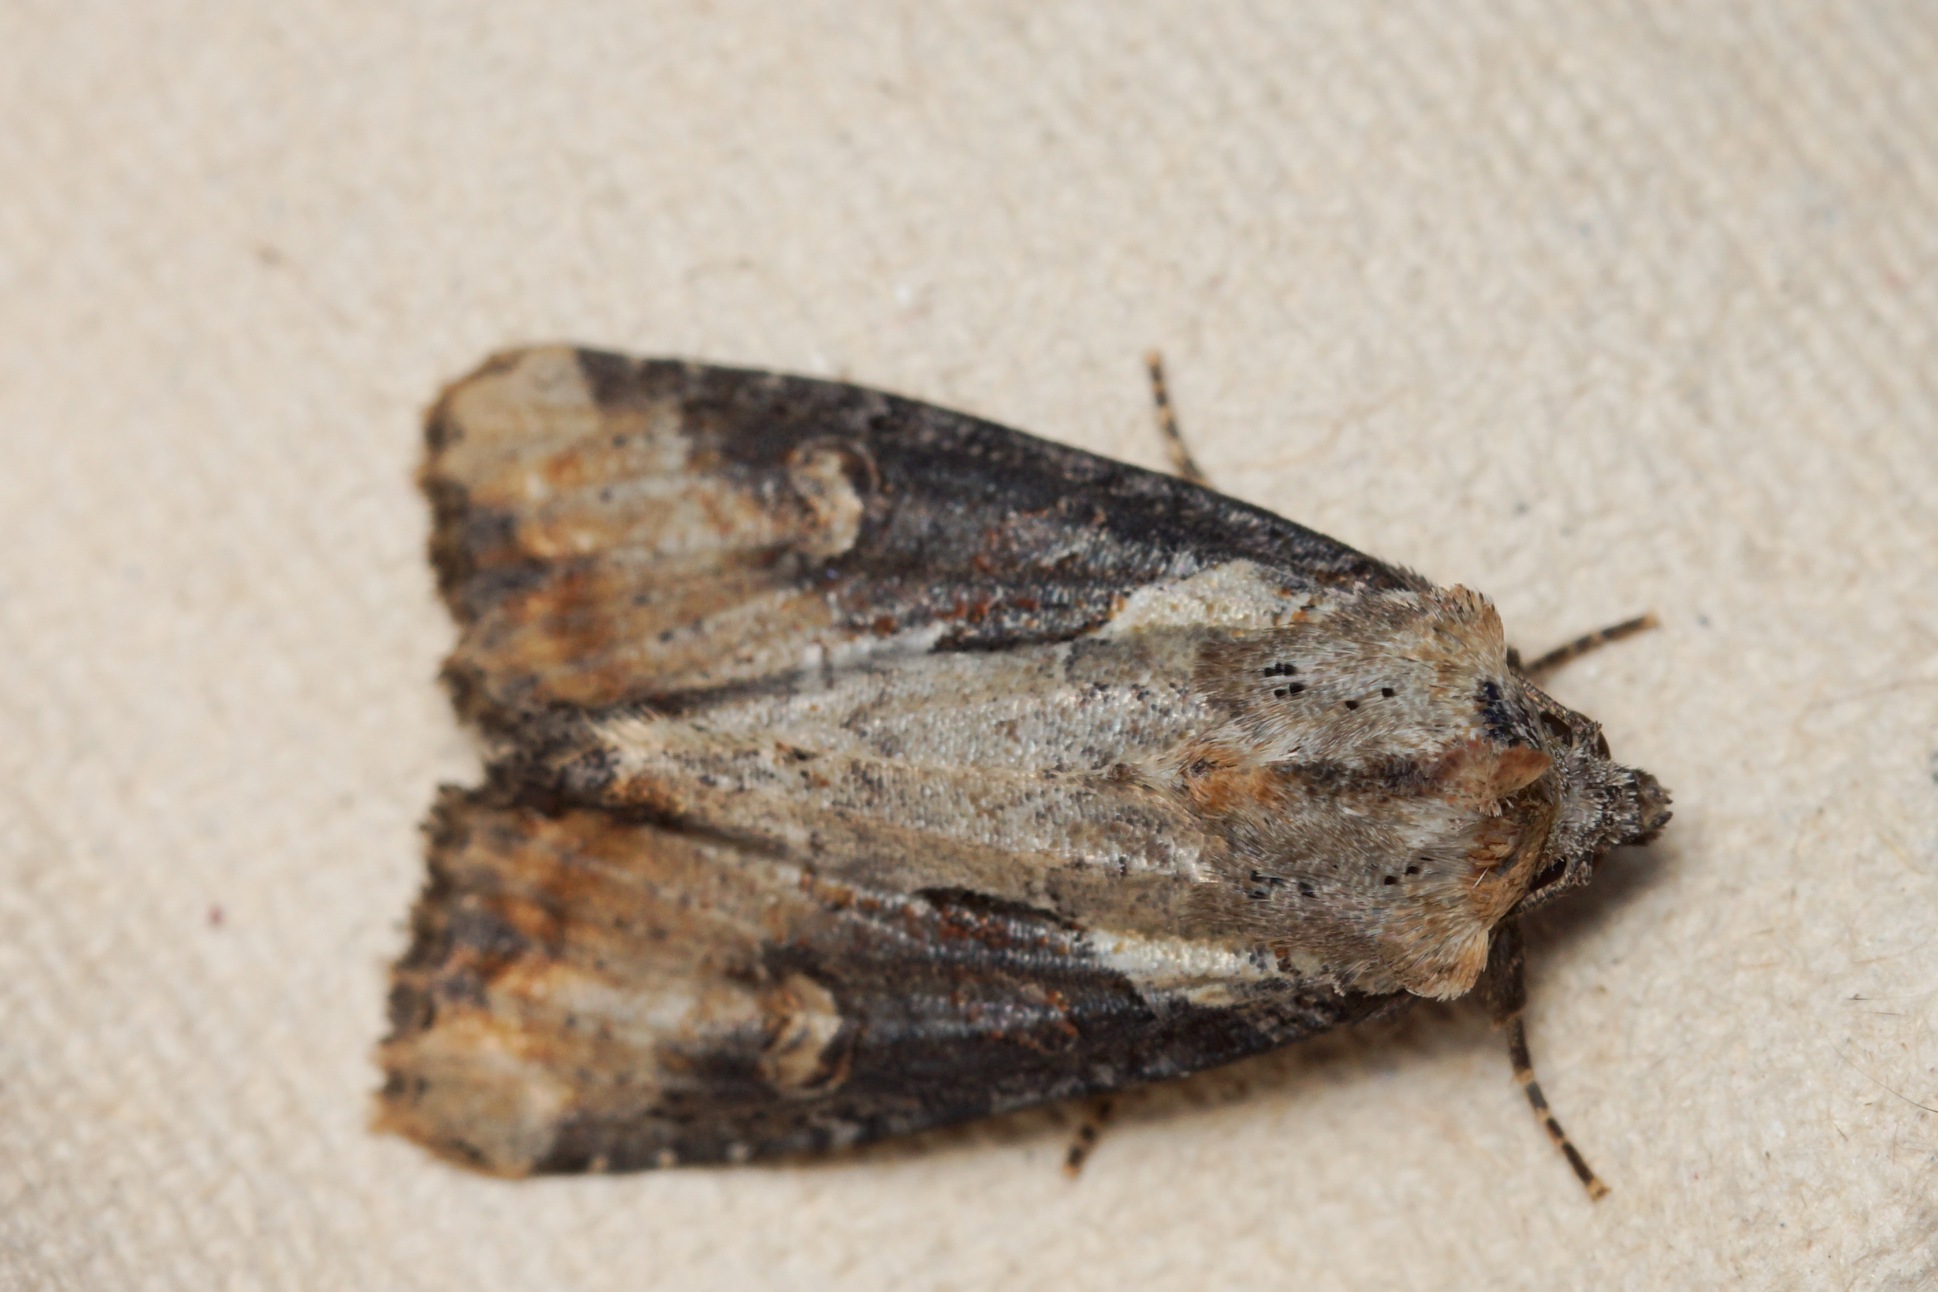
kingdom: Animalia
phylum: Arthropoda
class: Insecta
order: Lepidoptera
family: Noctuidae
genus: Lateroligia
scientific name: Lateroligia ophiogramma
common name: Slange-stængelugle
